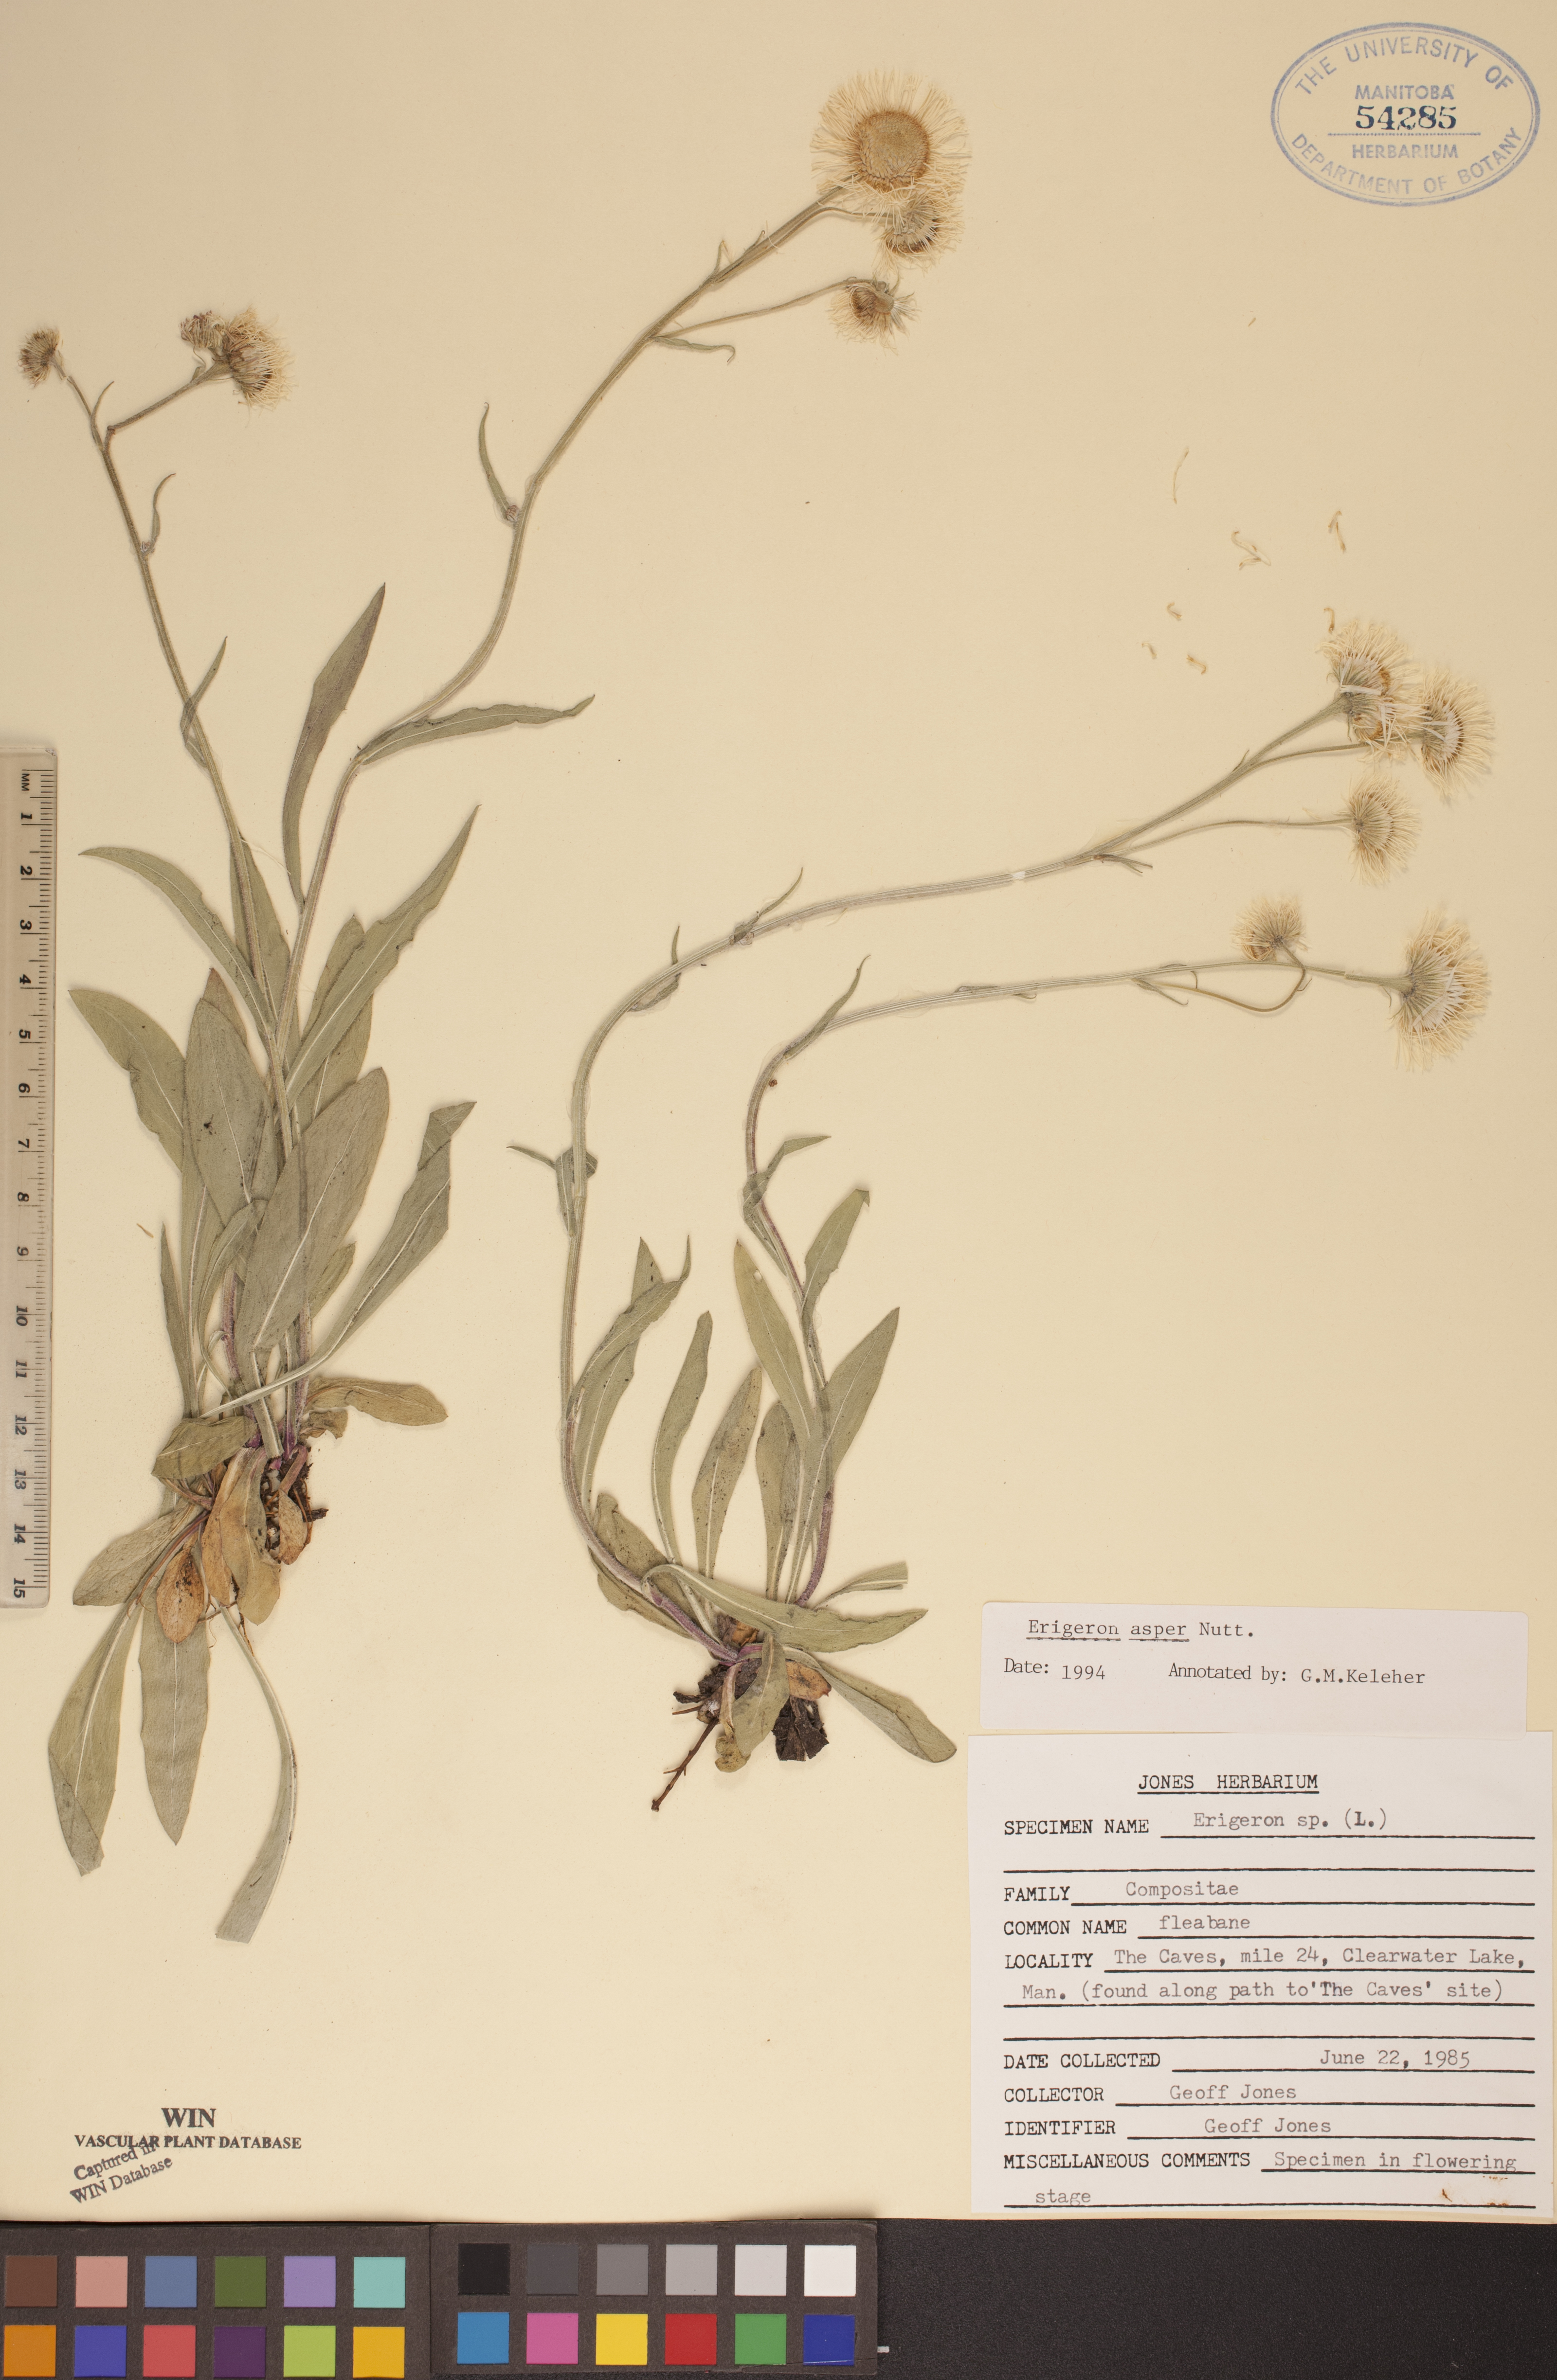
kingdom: Plantae
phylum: Tracheophyta
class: Magnoliopsida
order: Asterales
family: Asteraceae
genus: Erigeron
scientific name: Erigeron glabellus
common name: Smooth fleabane
